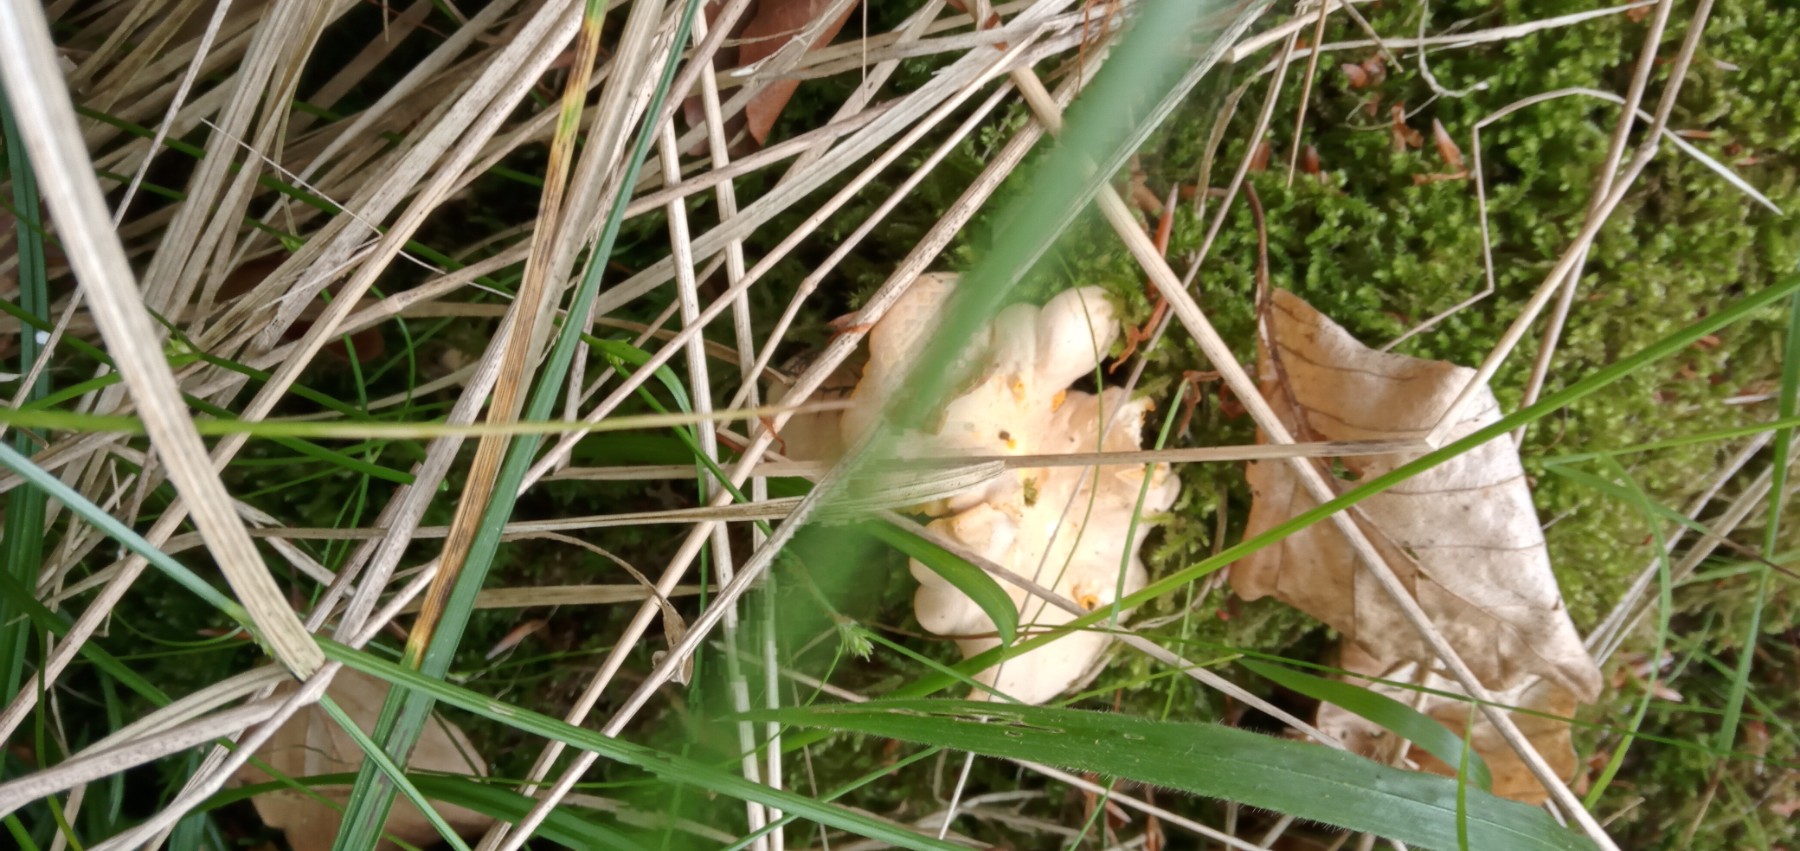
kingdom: Fungi
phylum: Basidiomycota
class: Agaricomycetes
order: Cantharellales
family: Hydnaceae
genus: Cantharellus
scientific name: Cantharellus pallens
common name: bleg kantarel
